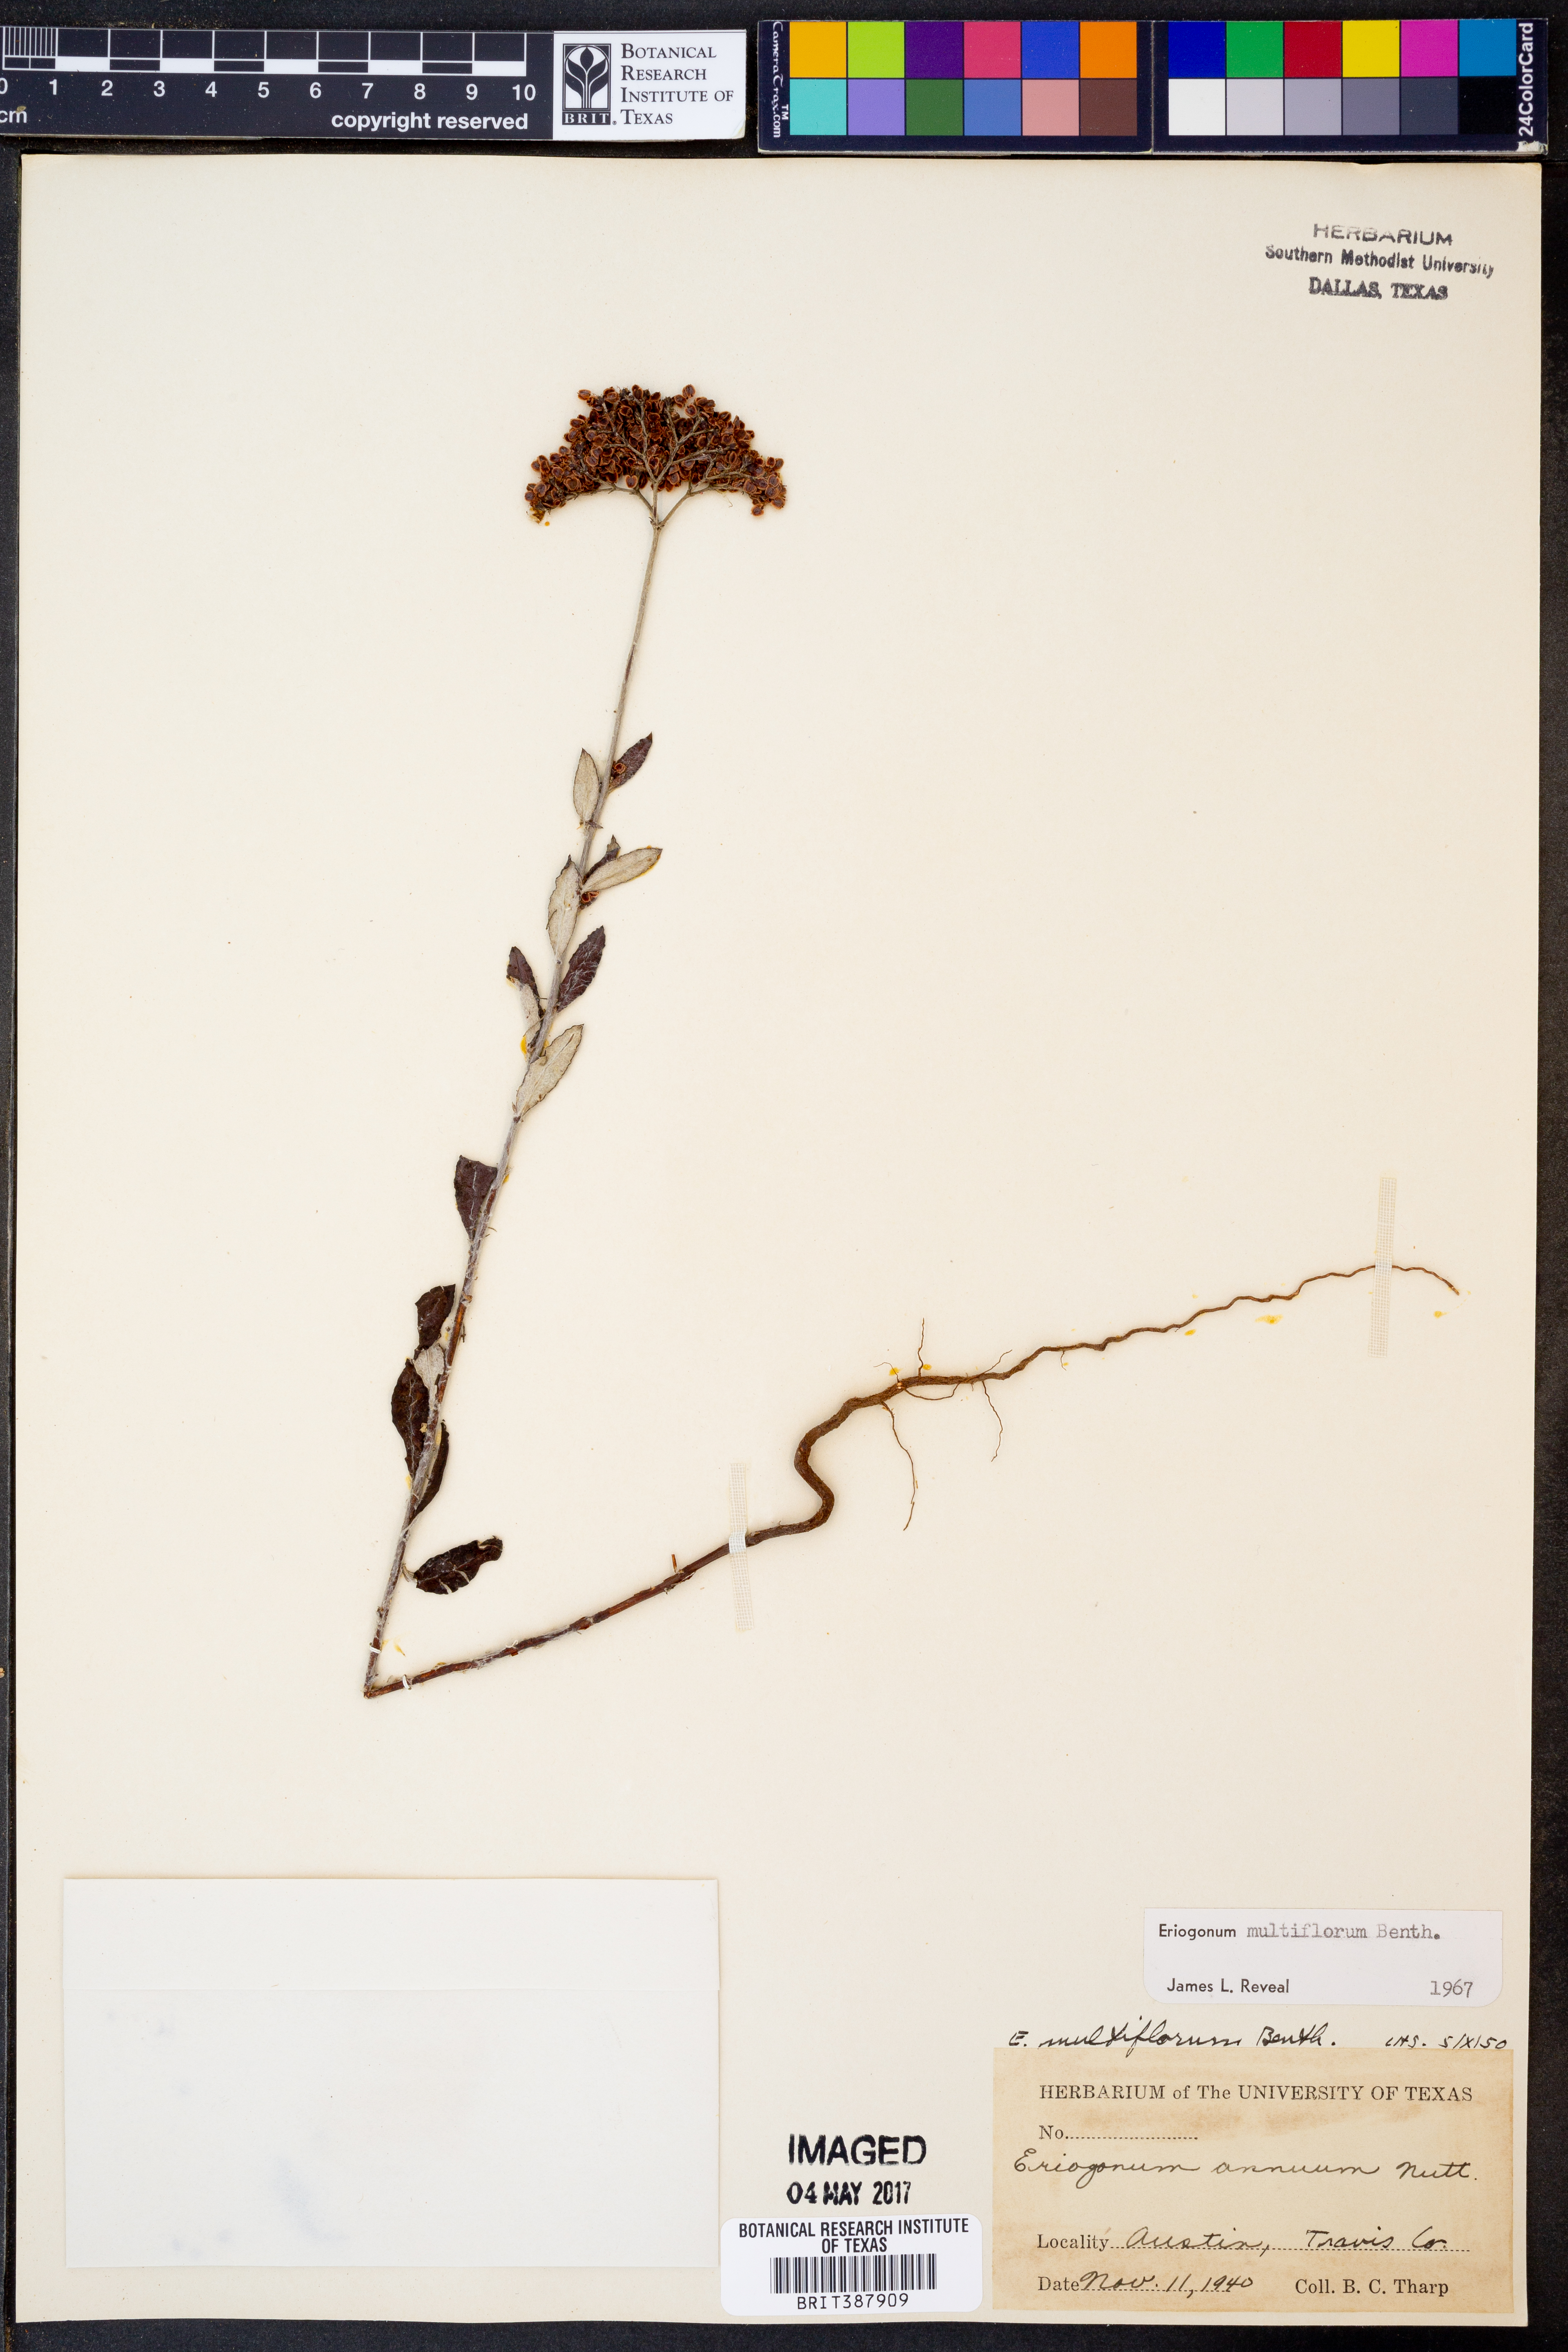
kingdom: Plantae
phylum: Tracheophyta
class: Magnoliopsida
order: Caryophyllales
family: Polygonaceae
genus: Eriogonum
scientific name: Eriogonum multiflorum
